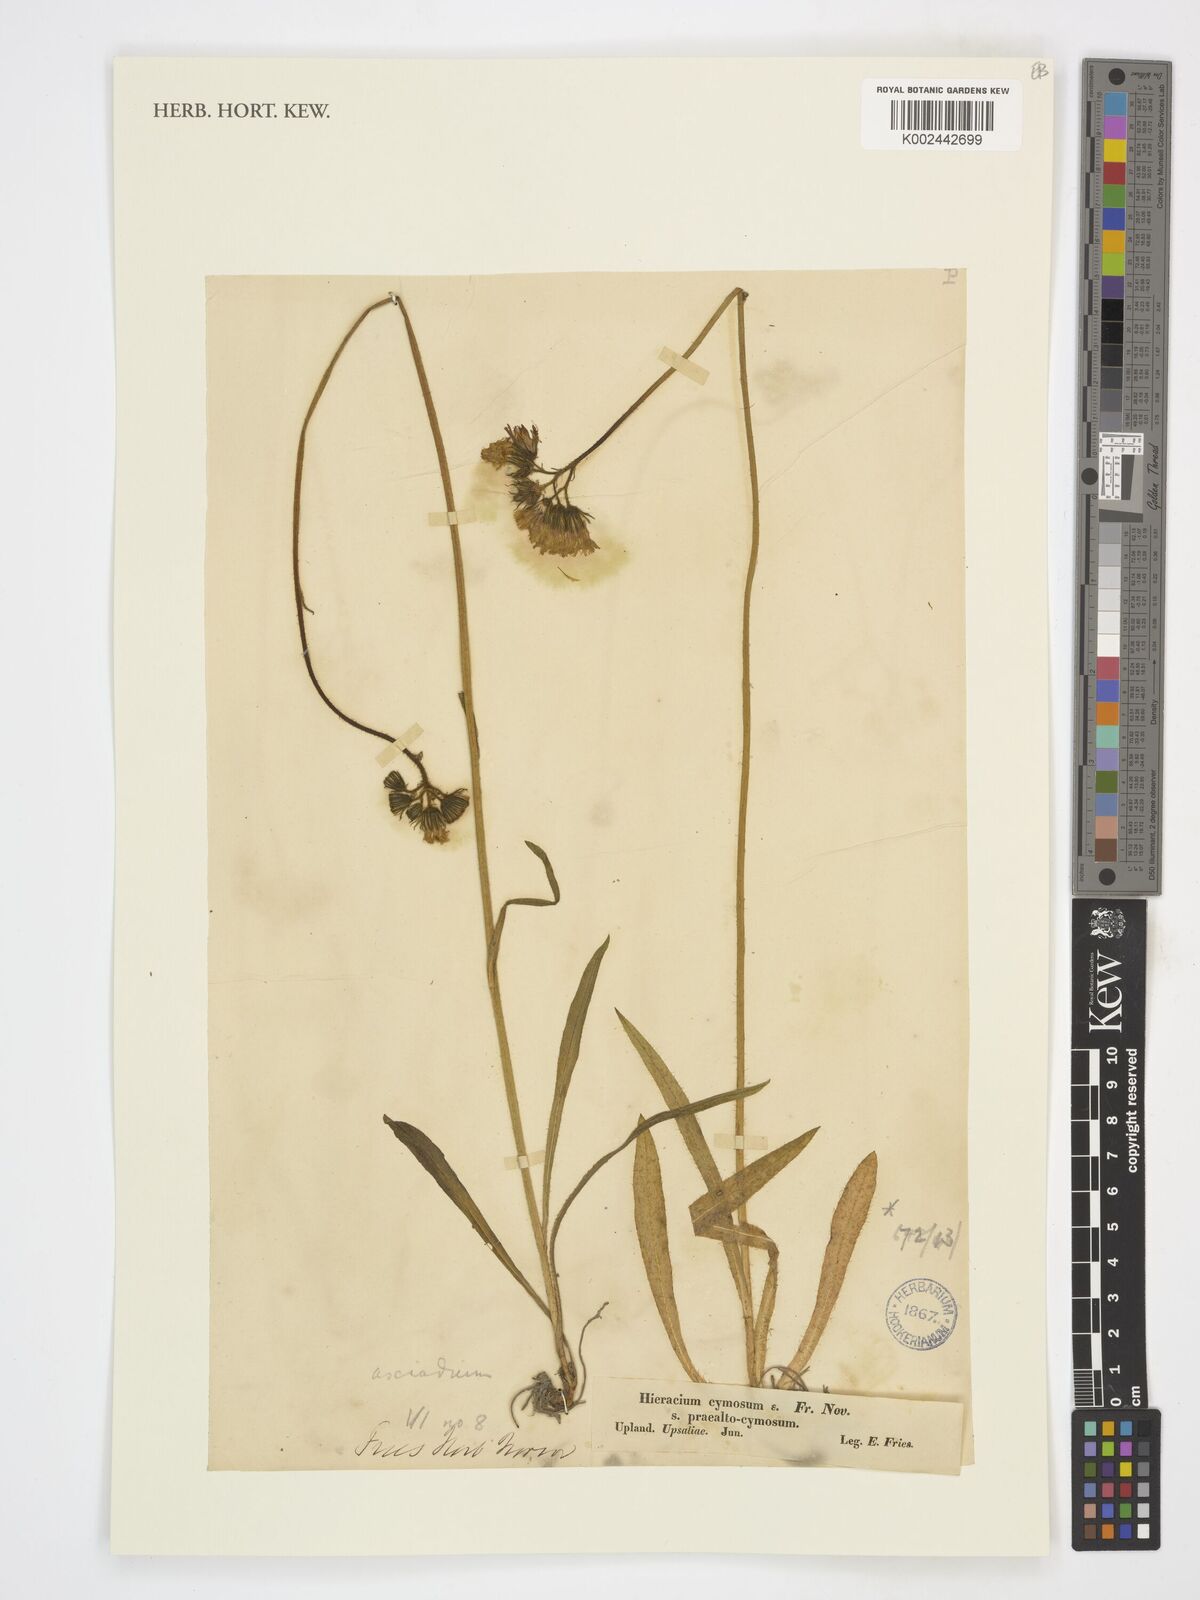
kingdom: Plantae
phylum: Tracheophyta
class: Magnoliopsida
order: Asterales
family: Asteraceae
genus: Pilosella
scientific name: Pilosella cymosa
